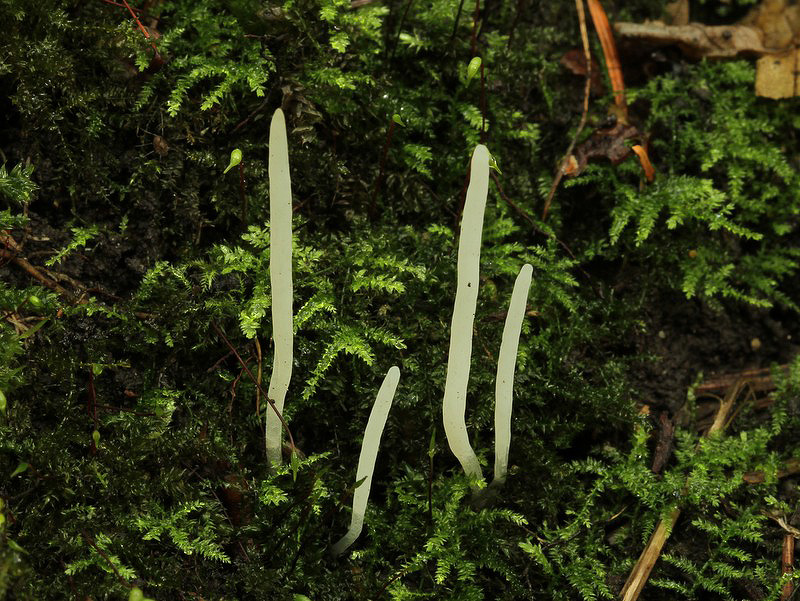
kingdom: Fungi
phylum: Basidiomycota
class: Agaricomycetes
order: Agaricales
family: Clavariaceae
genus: Clavaria
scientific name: Clavaria falcata
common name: hvid køllesvamp
